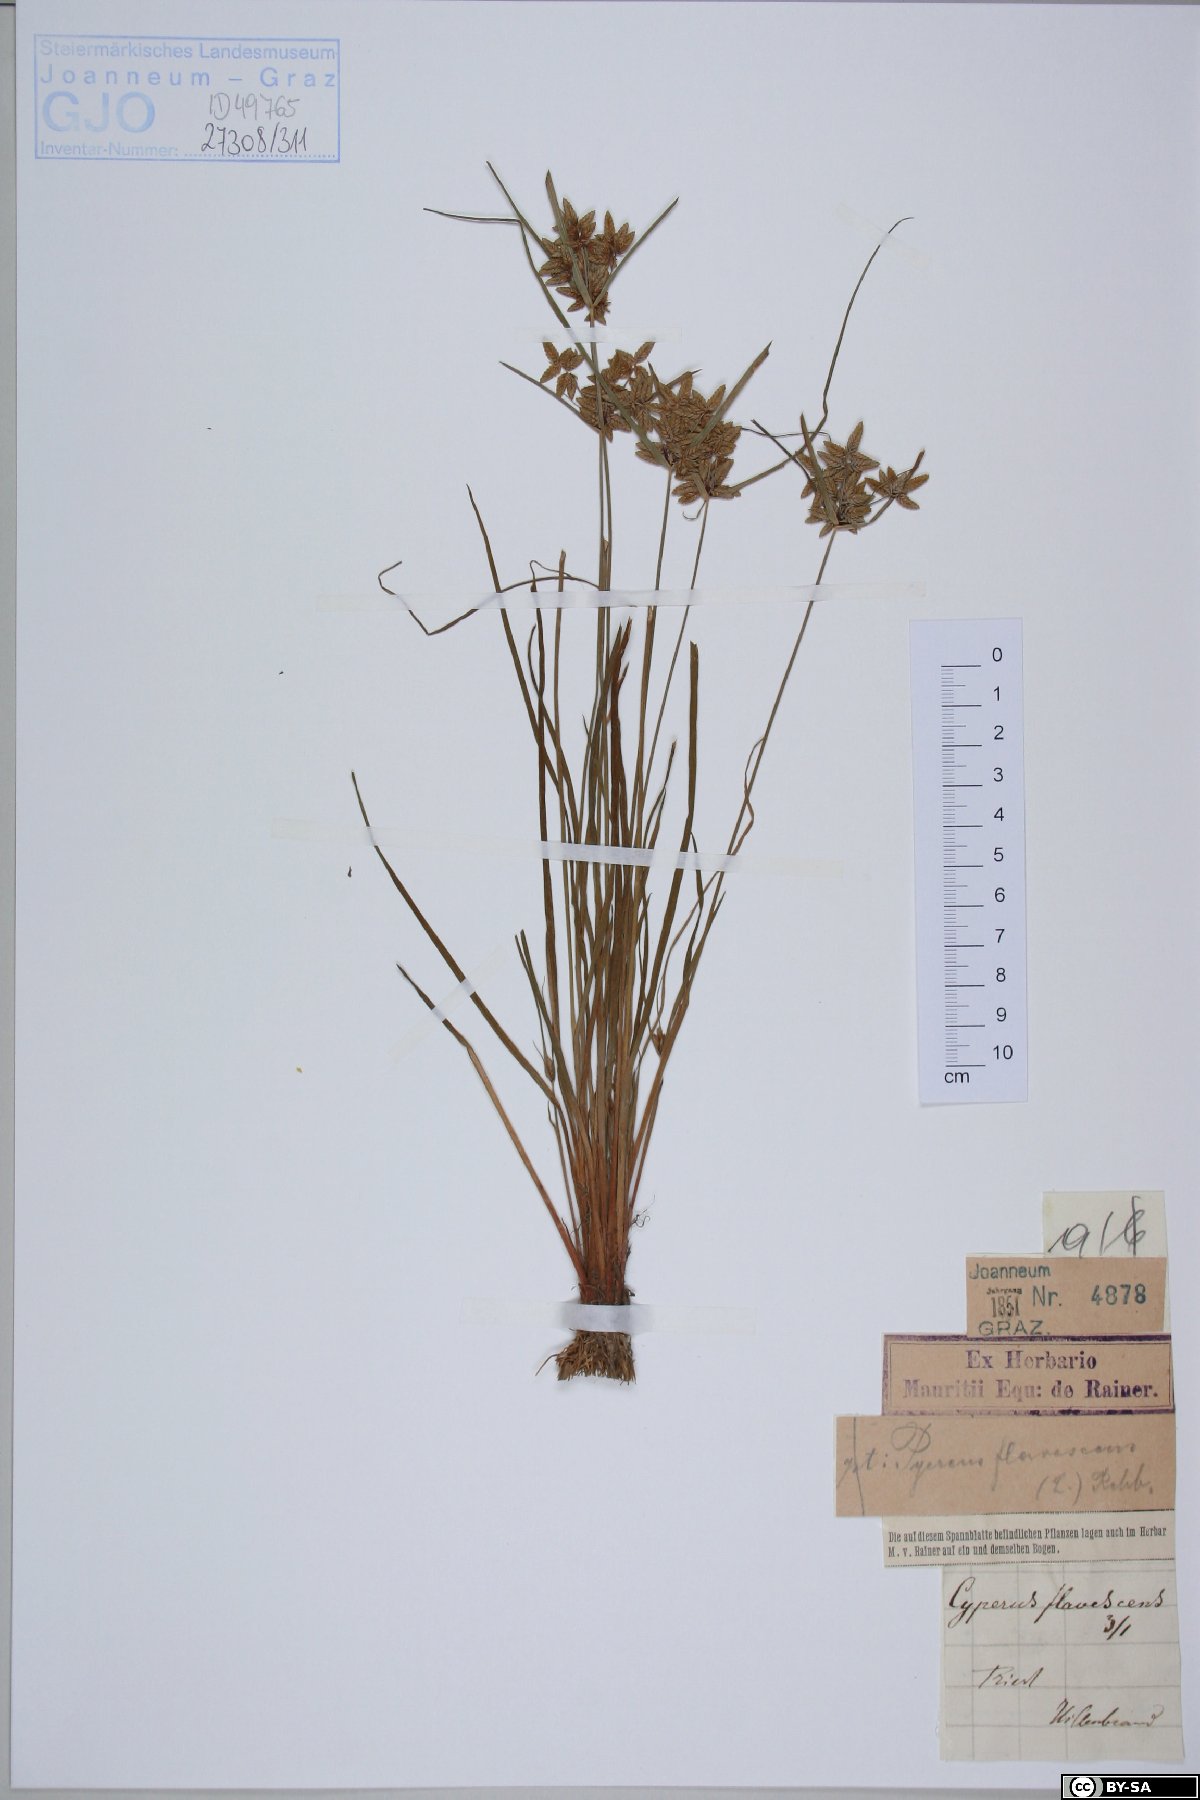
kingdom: Plantae
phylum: Tracheophyta
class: Liliopsida
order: Poales
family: Cyperaceae
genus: Cyperus
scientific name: Cyperus flavescens
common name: Yellow galingale
